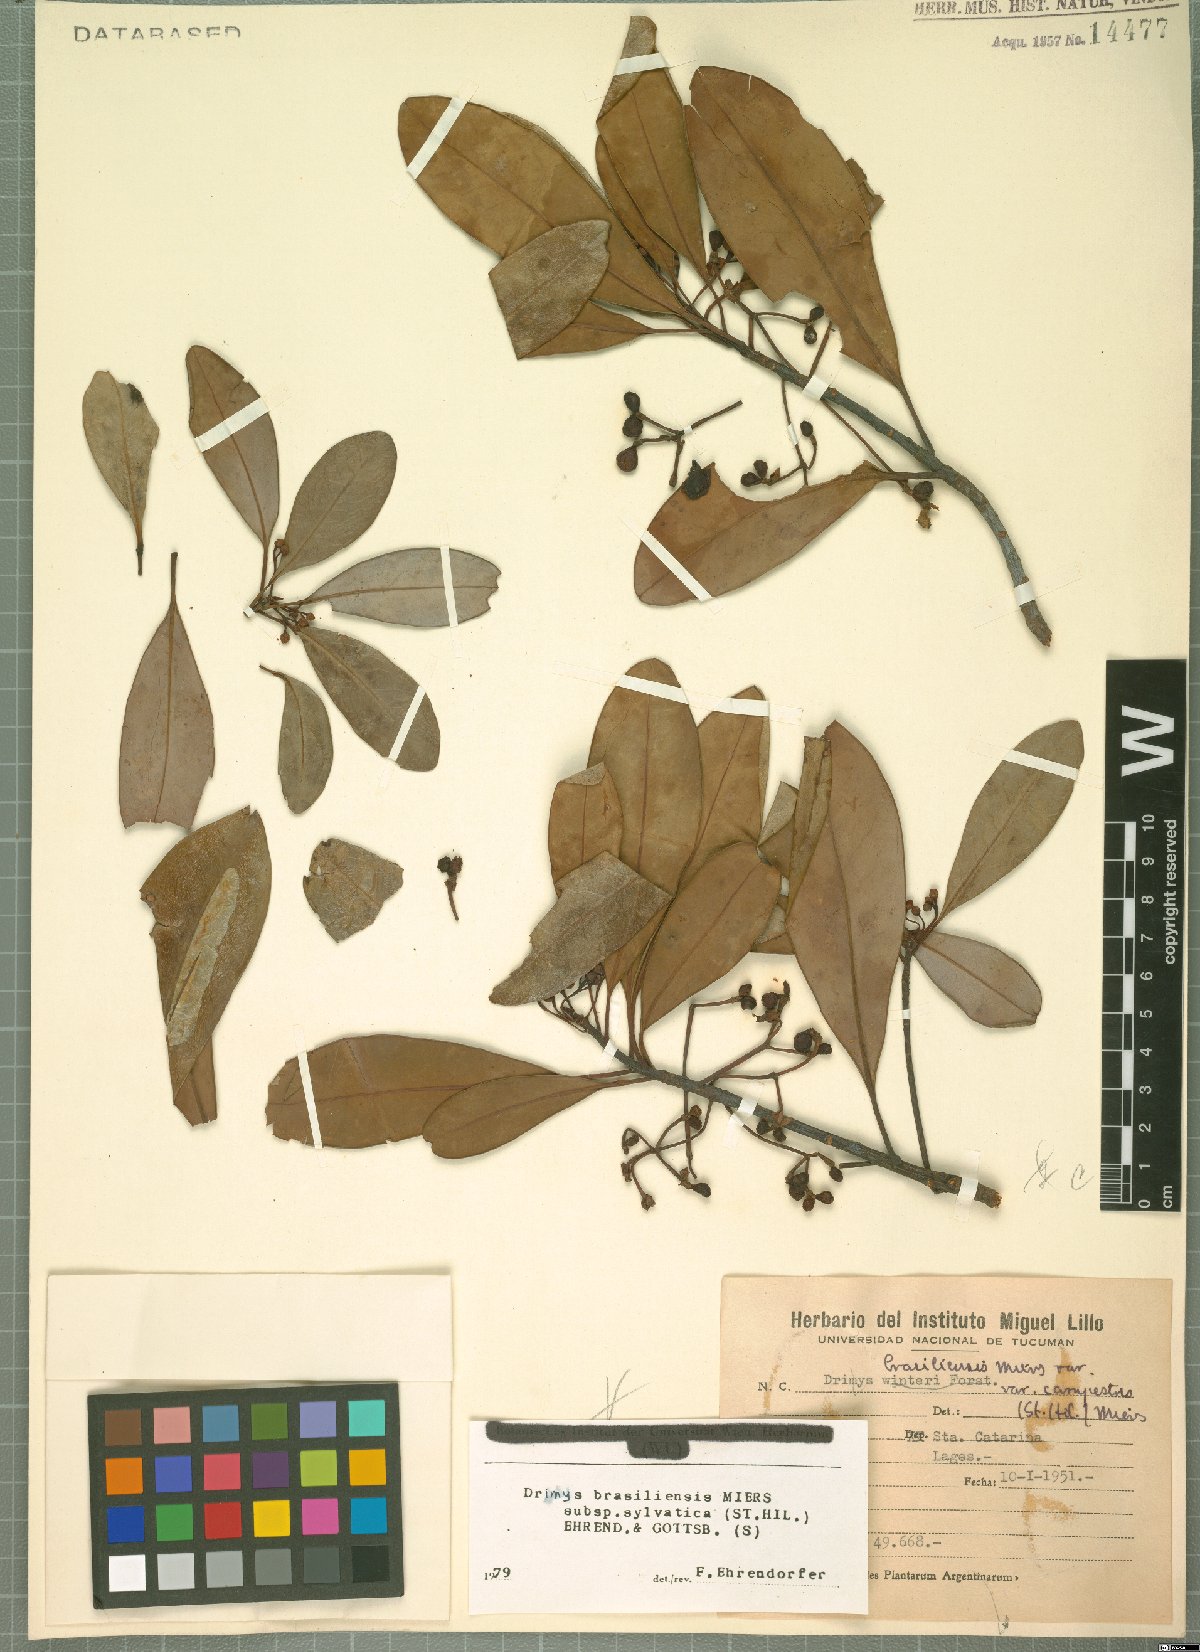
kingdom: Plantae
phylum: Tracheophyta
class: Magnoliopsida
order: Canellales
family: Winteraceae
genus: Drimys
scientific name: Drimys brasiliensis
